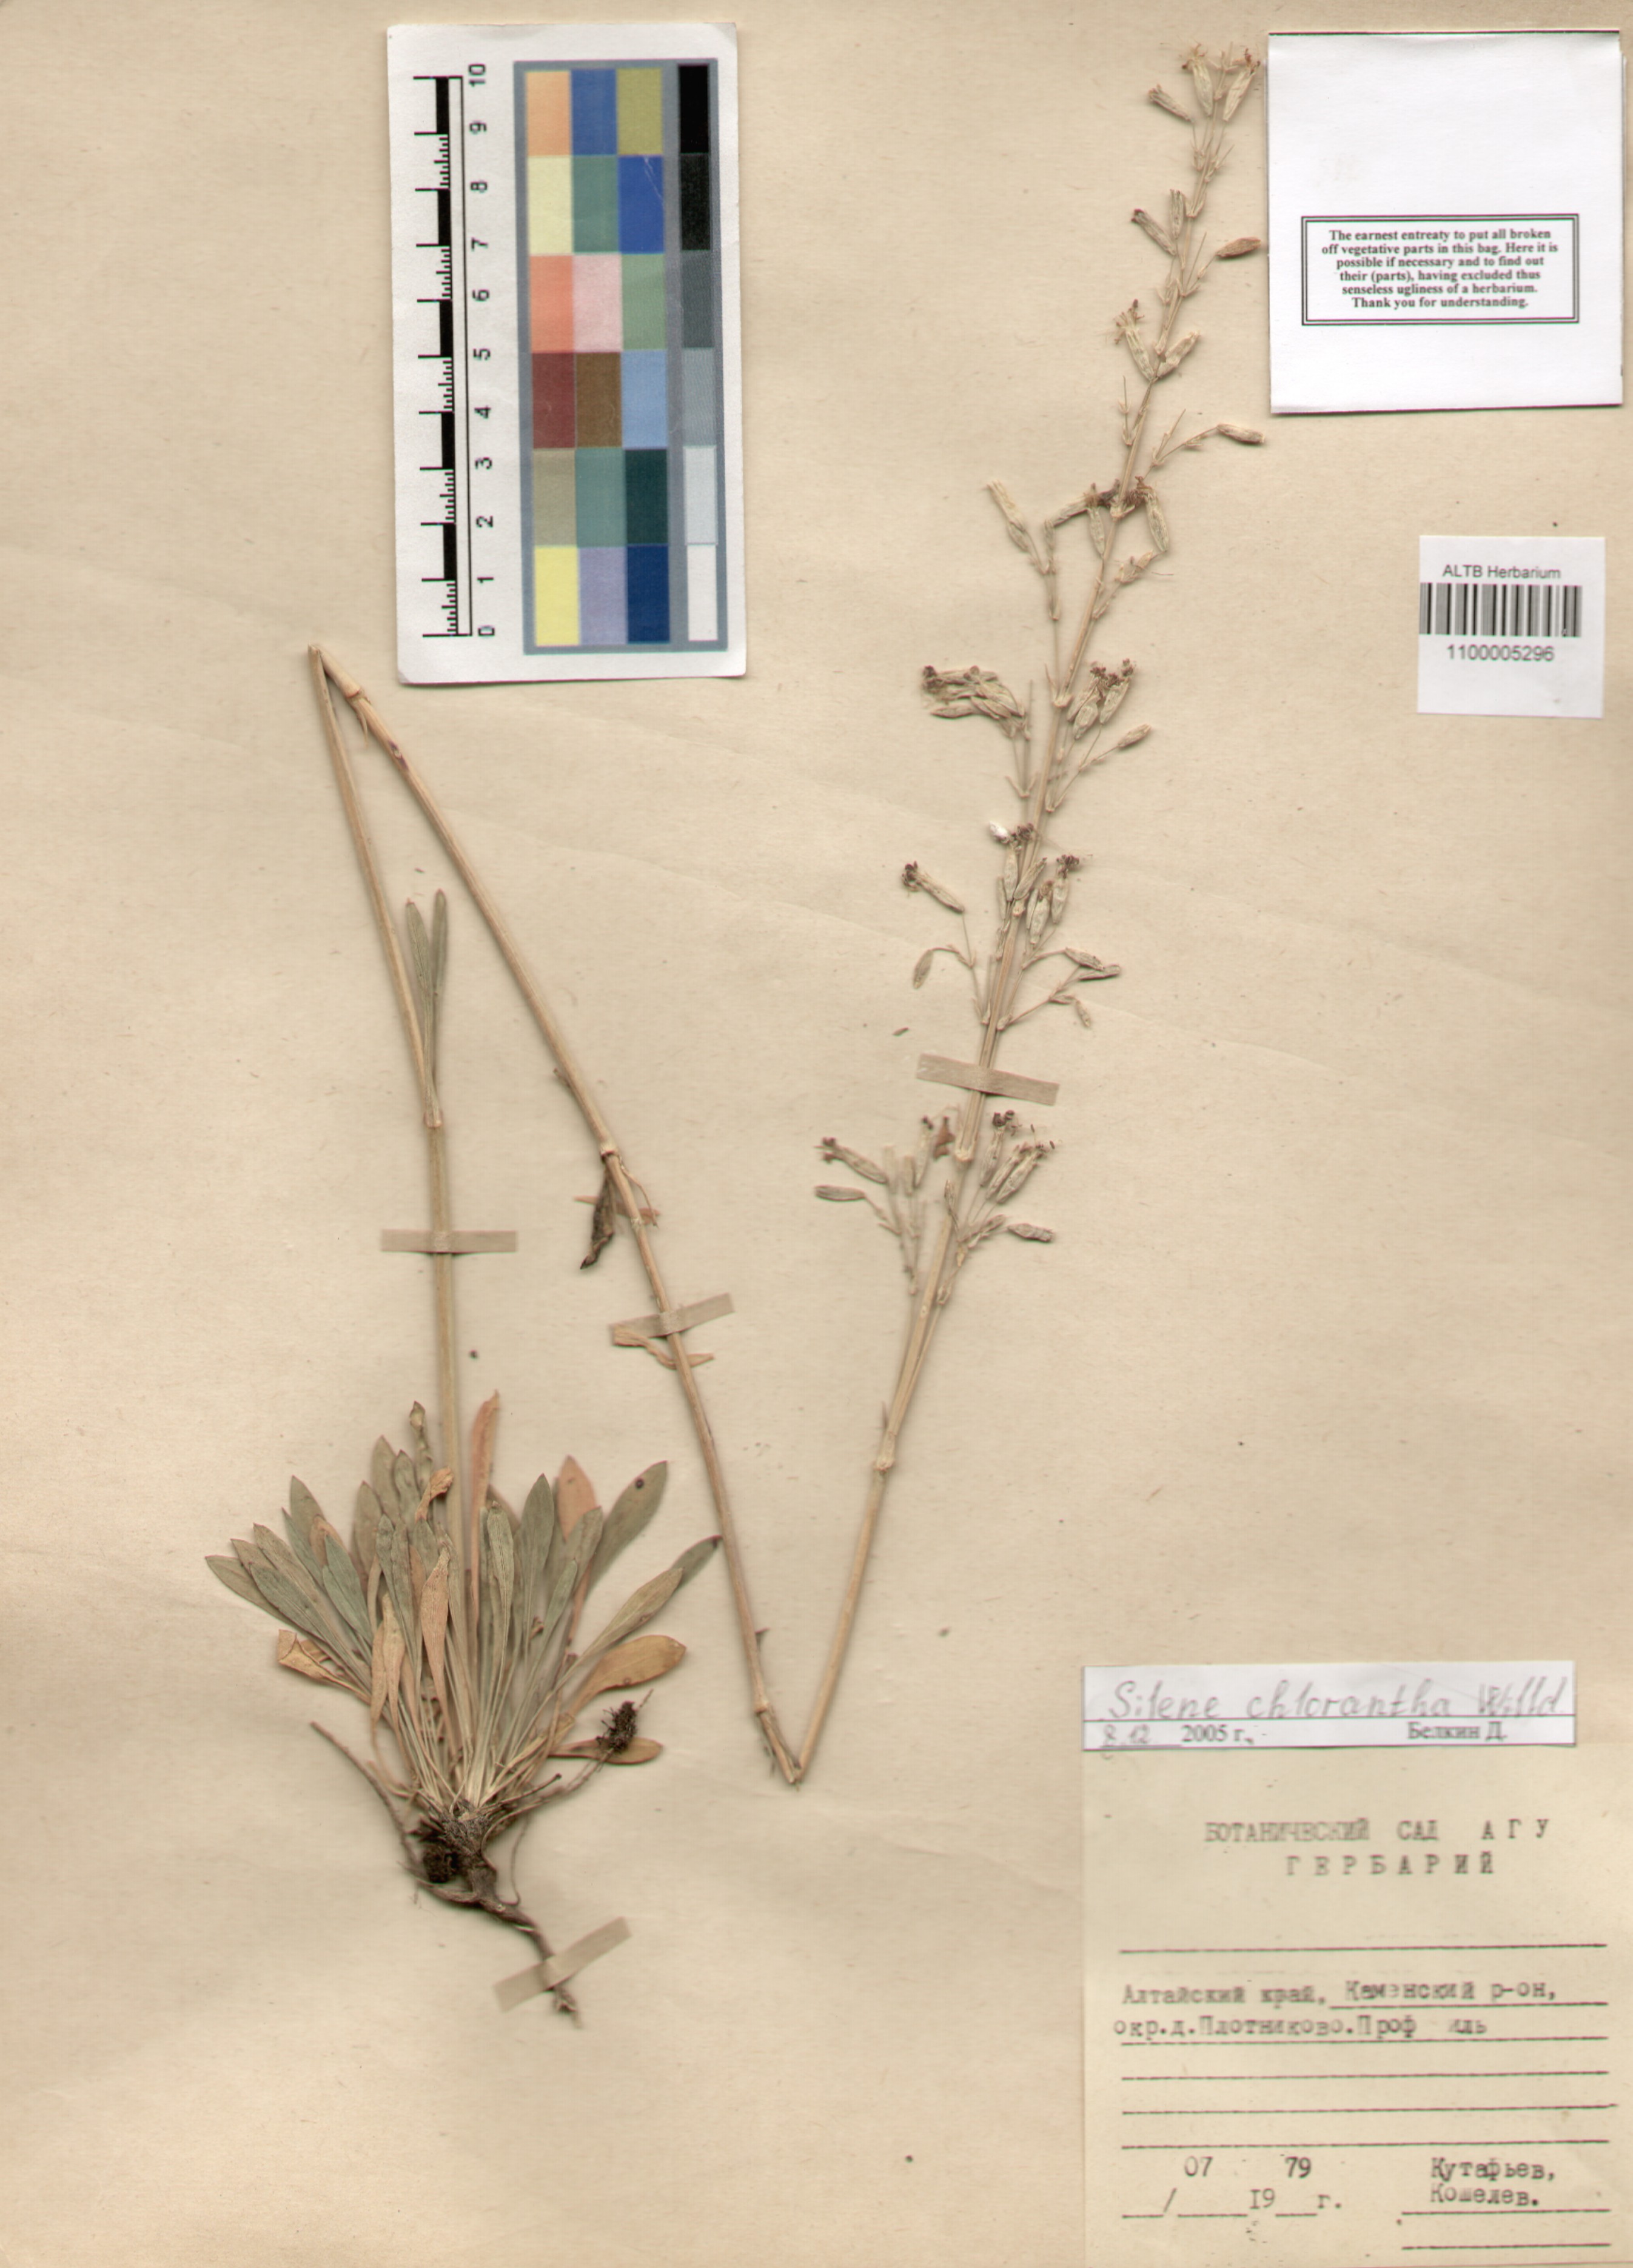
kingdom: Plantae
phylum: Tracheophyta
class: Magnoliopsida
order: Caryophyllales
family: Caryophyllaceae
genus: Silene
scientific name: Silene chlorantha
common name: Yellowgreen catchfly
